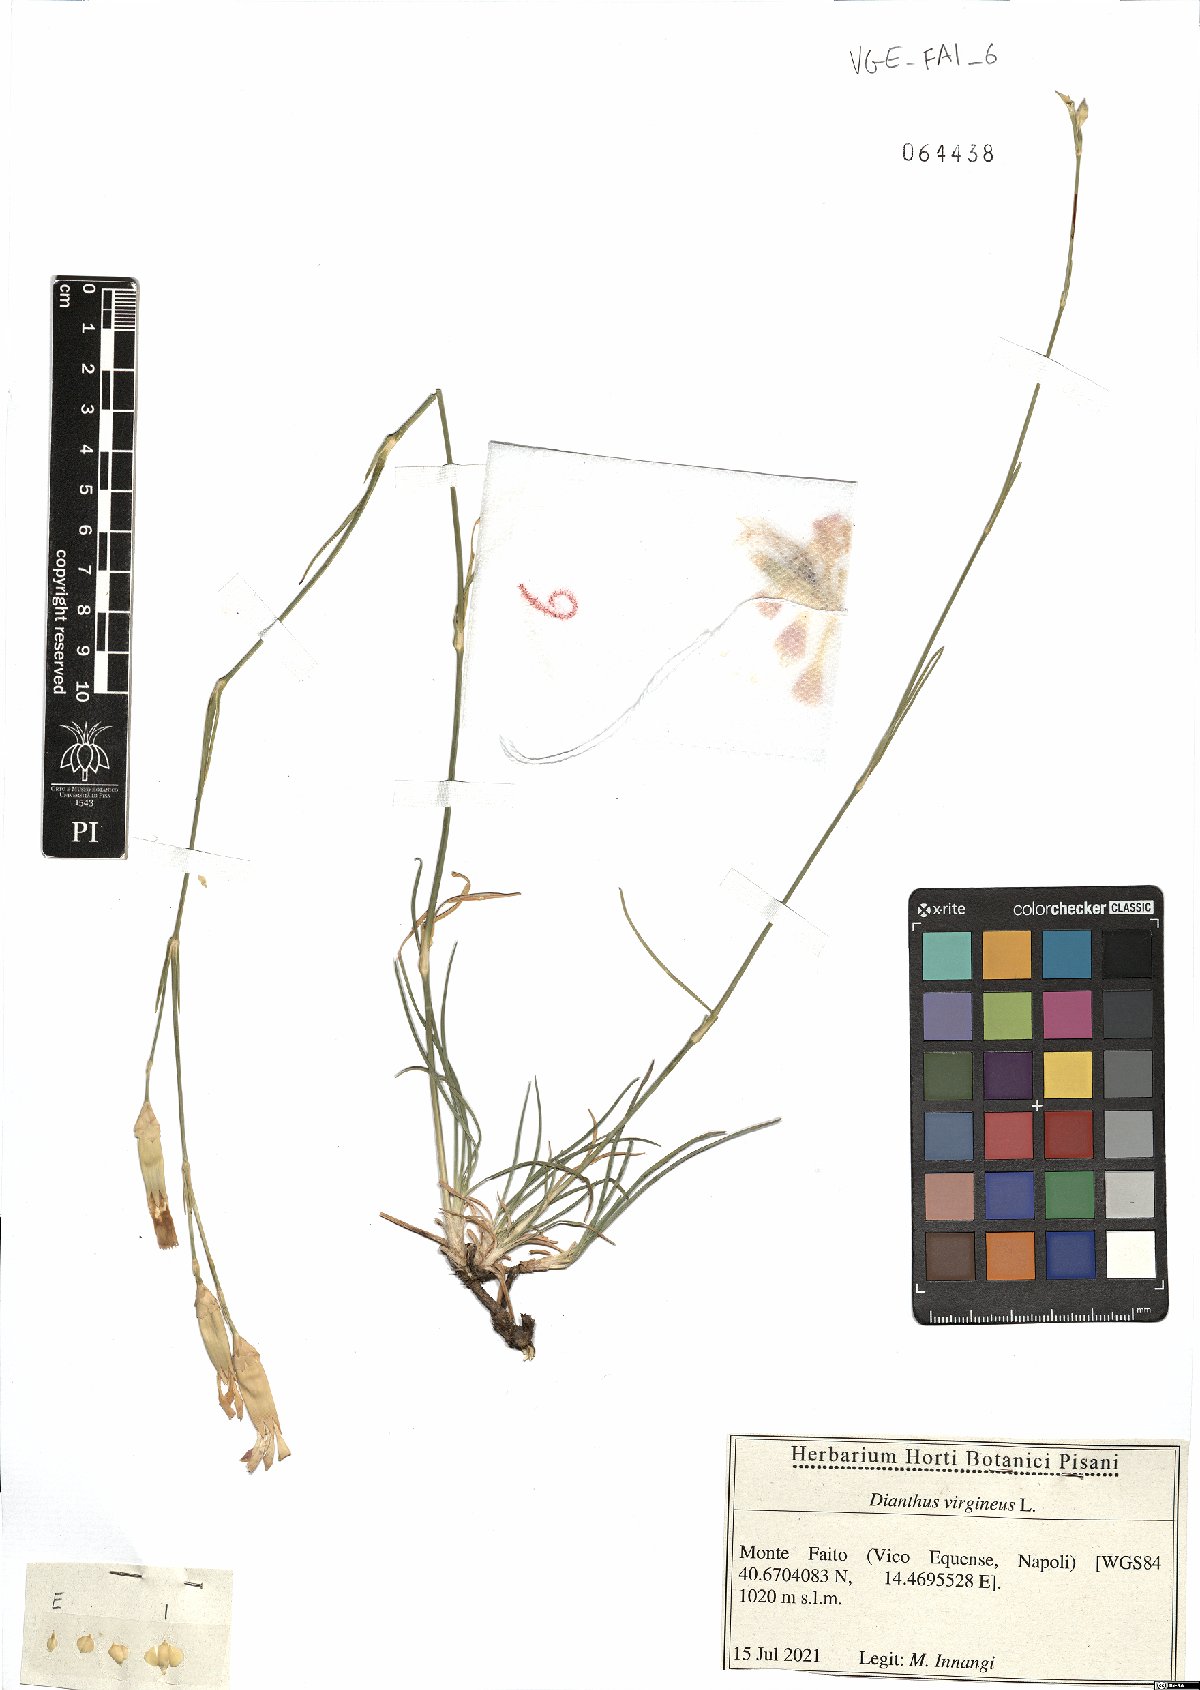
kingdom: Plantae
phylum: Tracheophyta
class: Magnoliopsida
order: Caryophyllales
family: Caryophyllaceae
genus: Dianthus
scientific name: Dianthus virgineus
